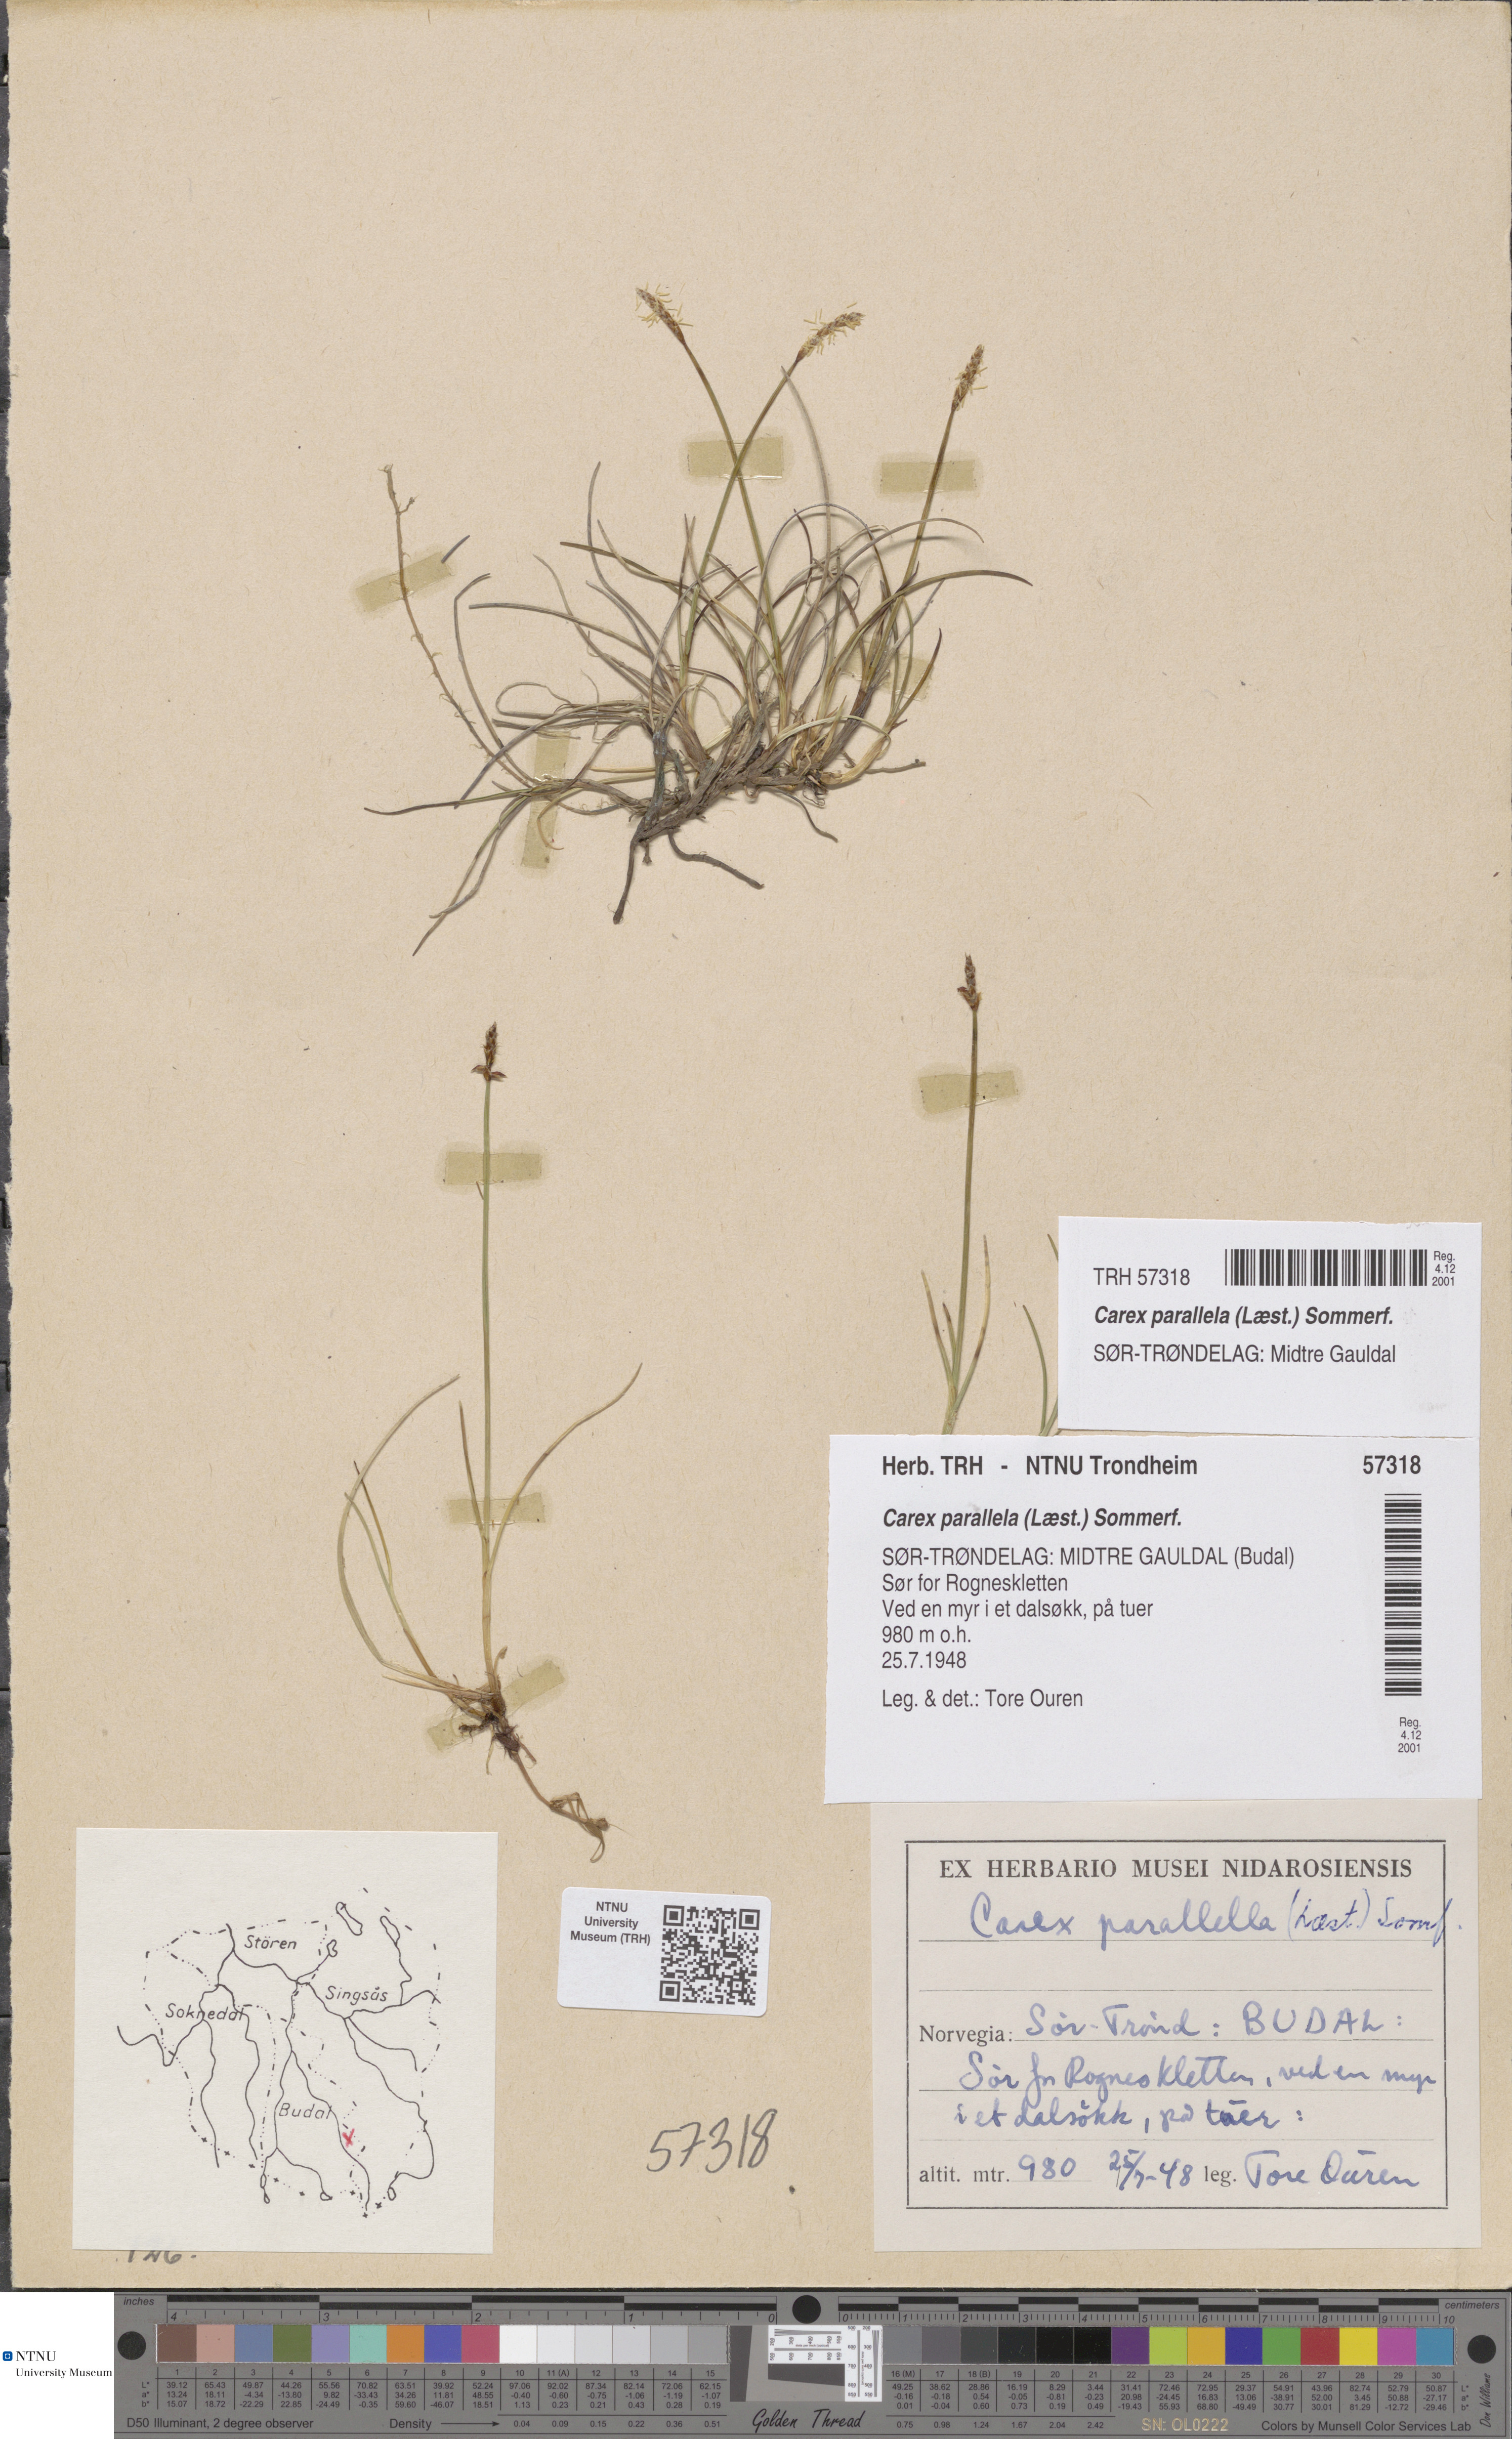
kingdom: Plantae
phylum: Tracheophyta
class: Liliopsida
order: Poales
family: Cyperaceae
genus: Carex
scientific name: Carex parallela
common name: Parallel sedge
